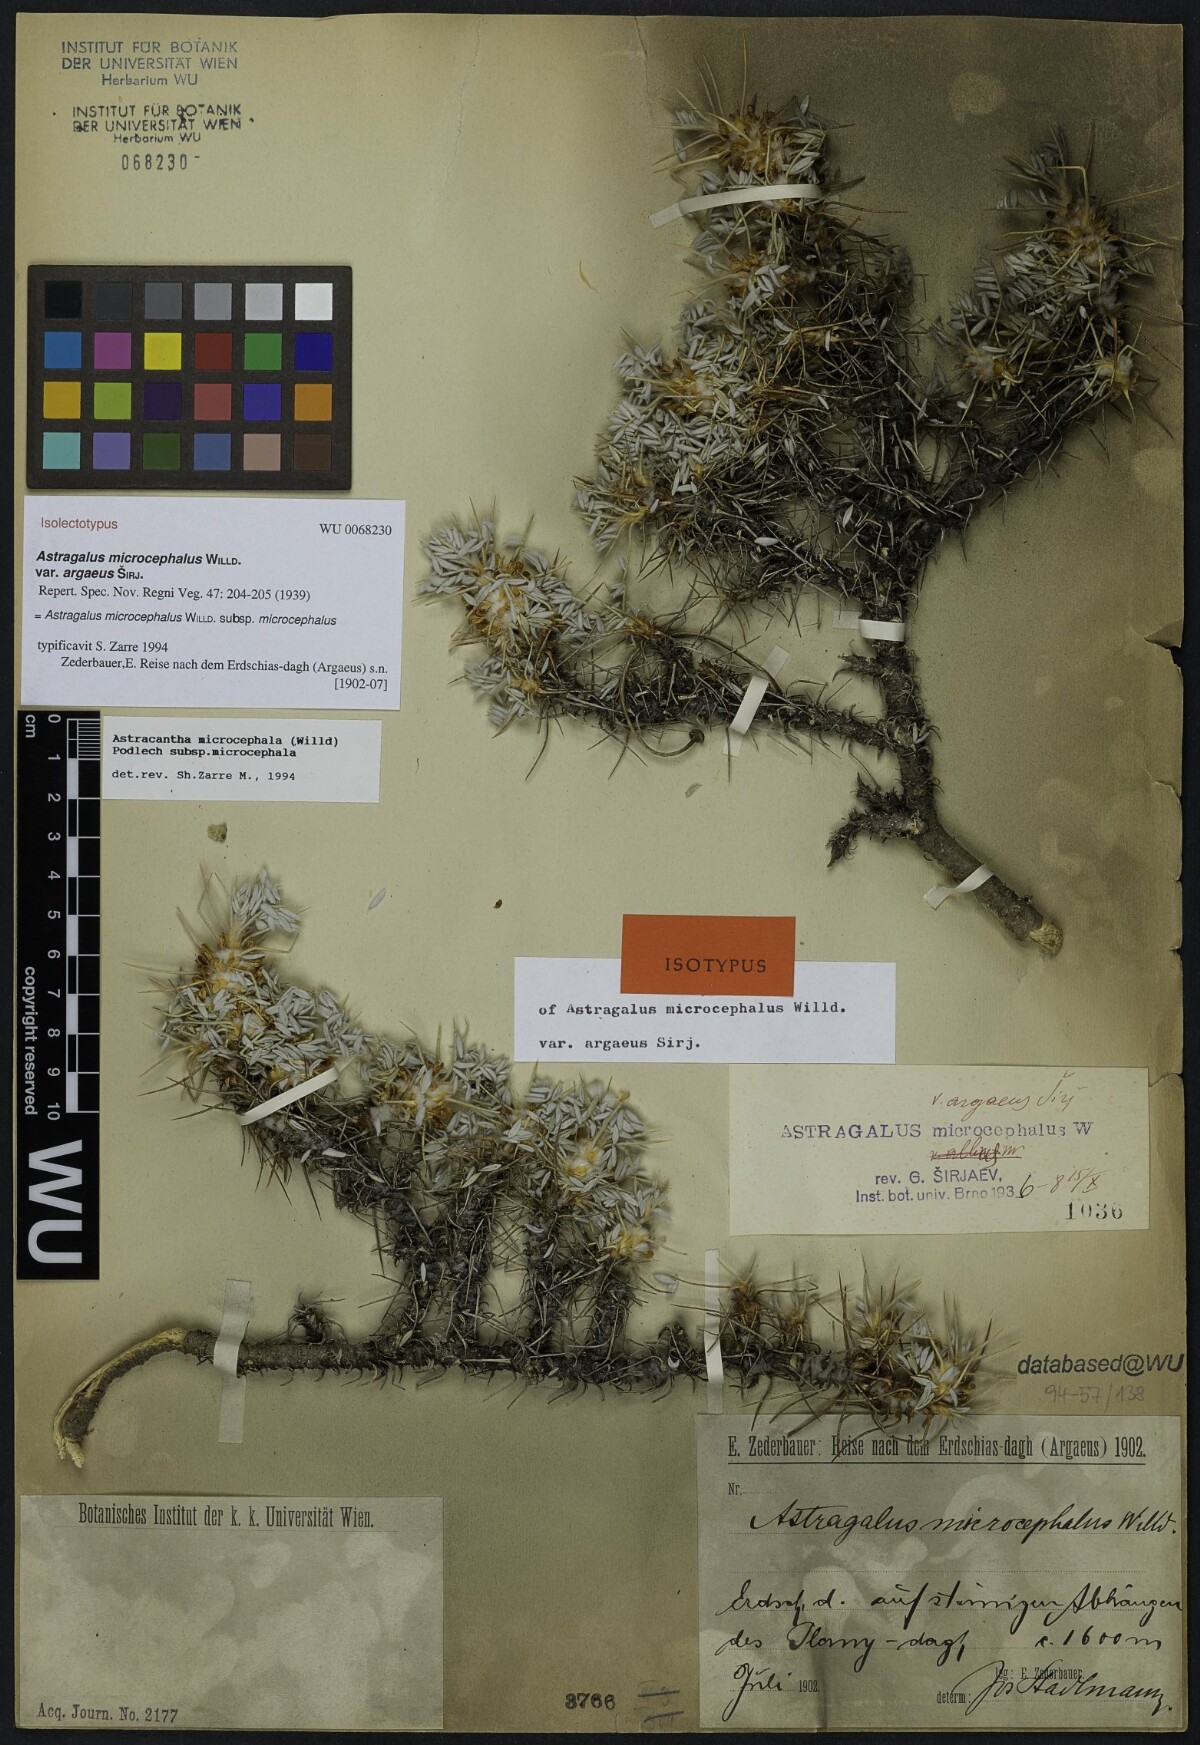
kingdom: Plantae
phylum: Tracheophyta
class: Magnoliopsida
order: Fabales
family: Fabaceae
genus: Astragalus
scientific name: Astragalus microcephalus
